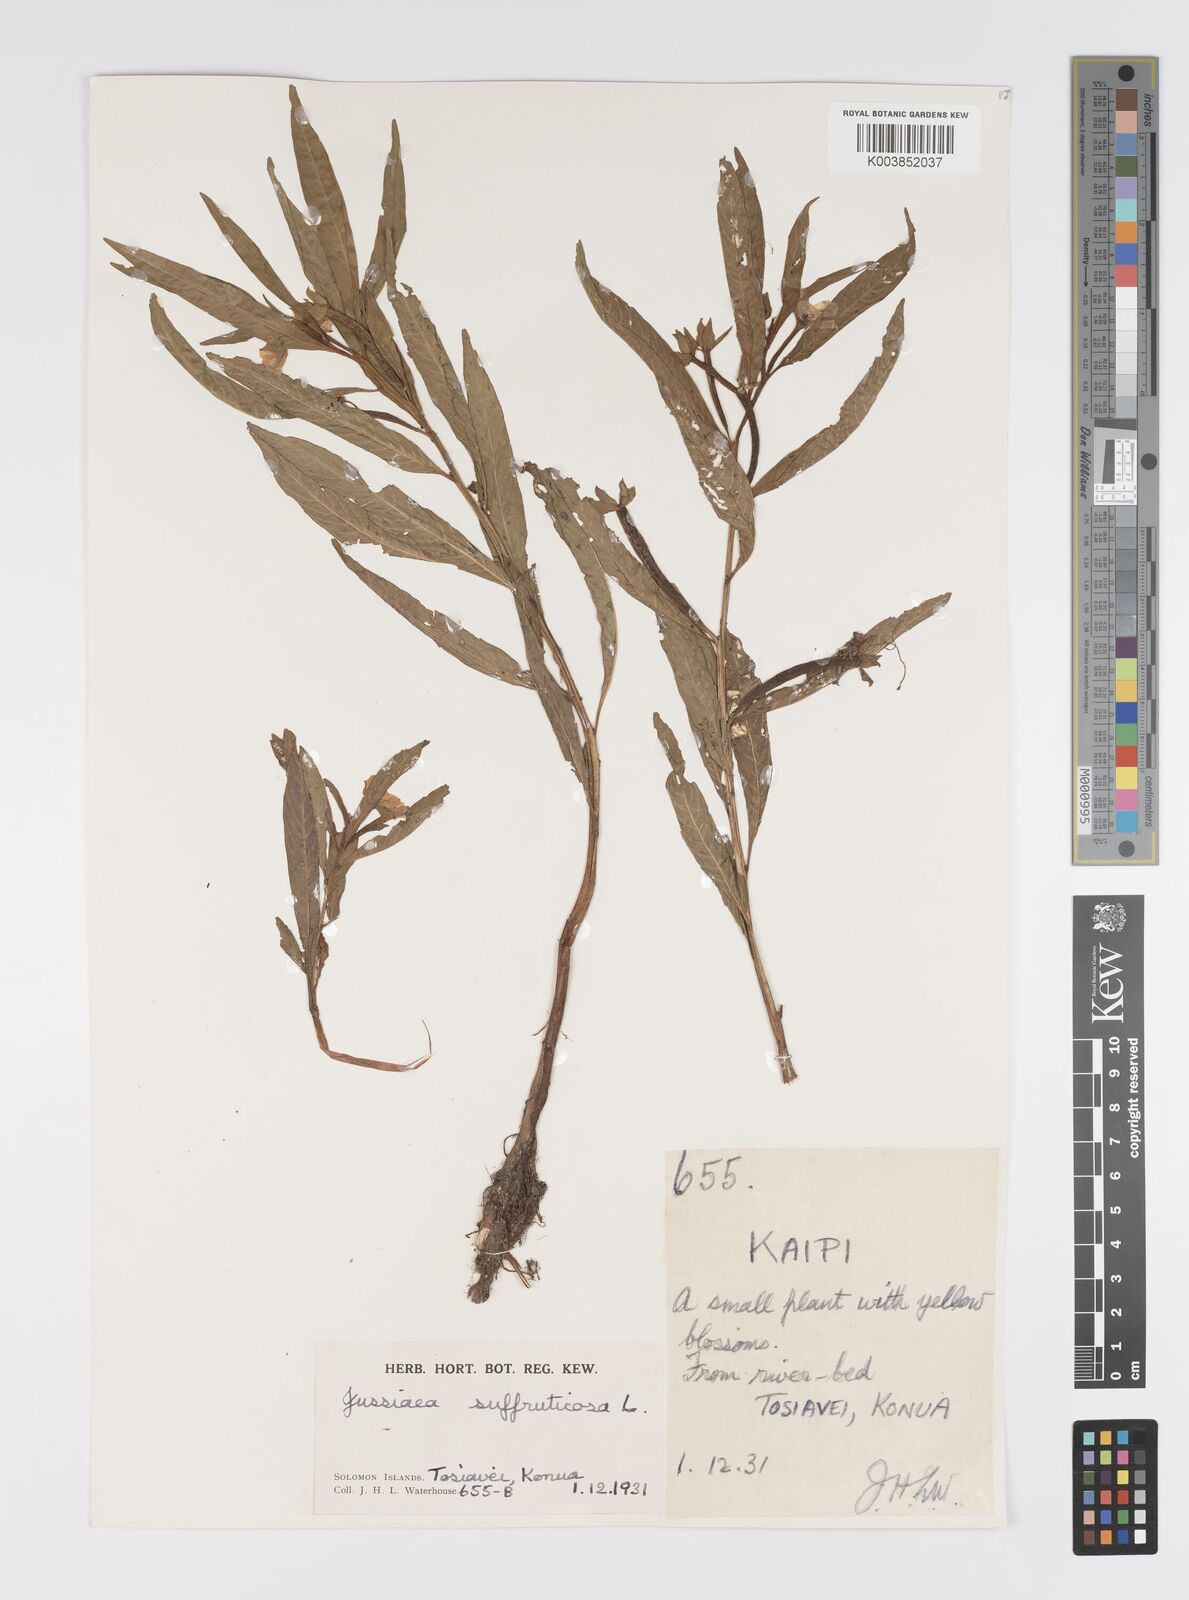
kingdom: Plantae
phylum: Tracheophyta
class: Magnoliopsida
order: Myrtales
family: Onagraceae
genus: Ludwigia
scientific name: Ludwigia octovalvis
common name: Water-primrose
